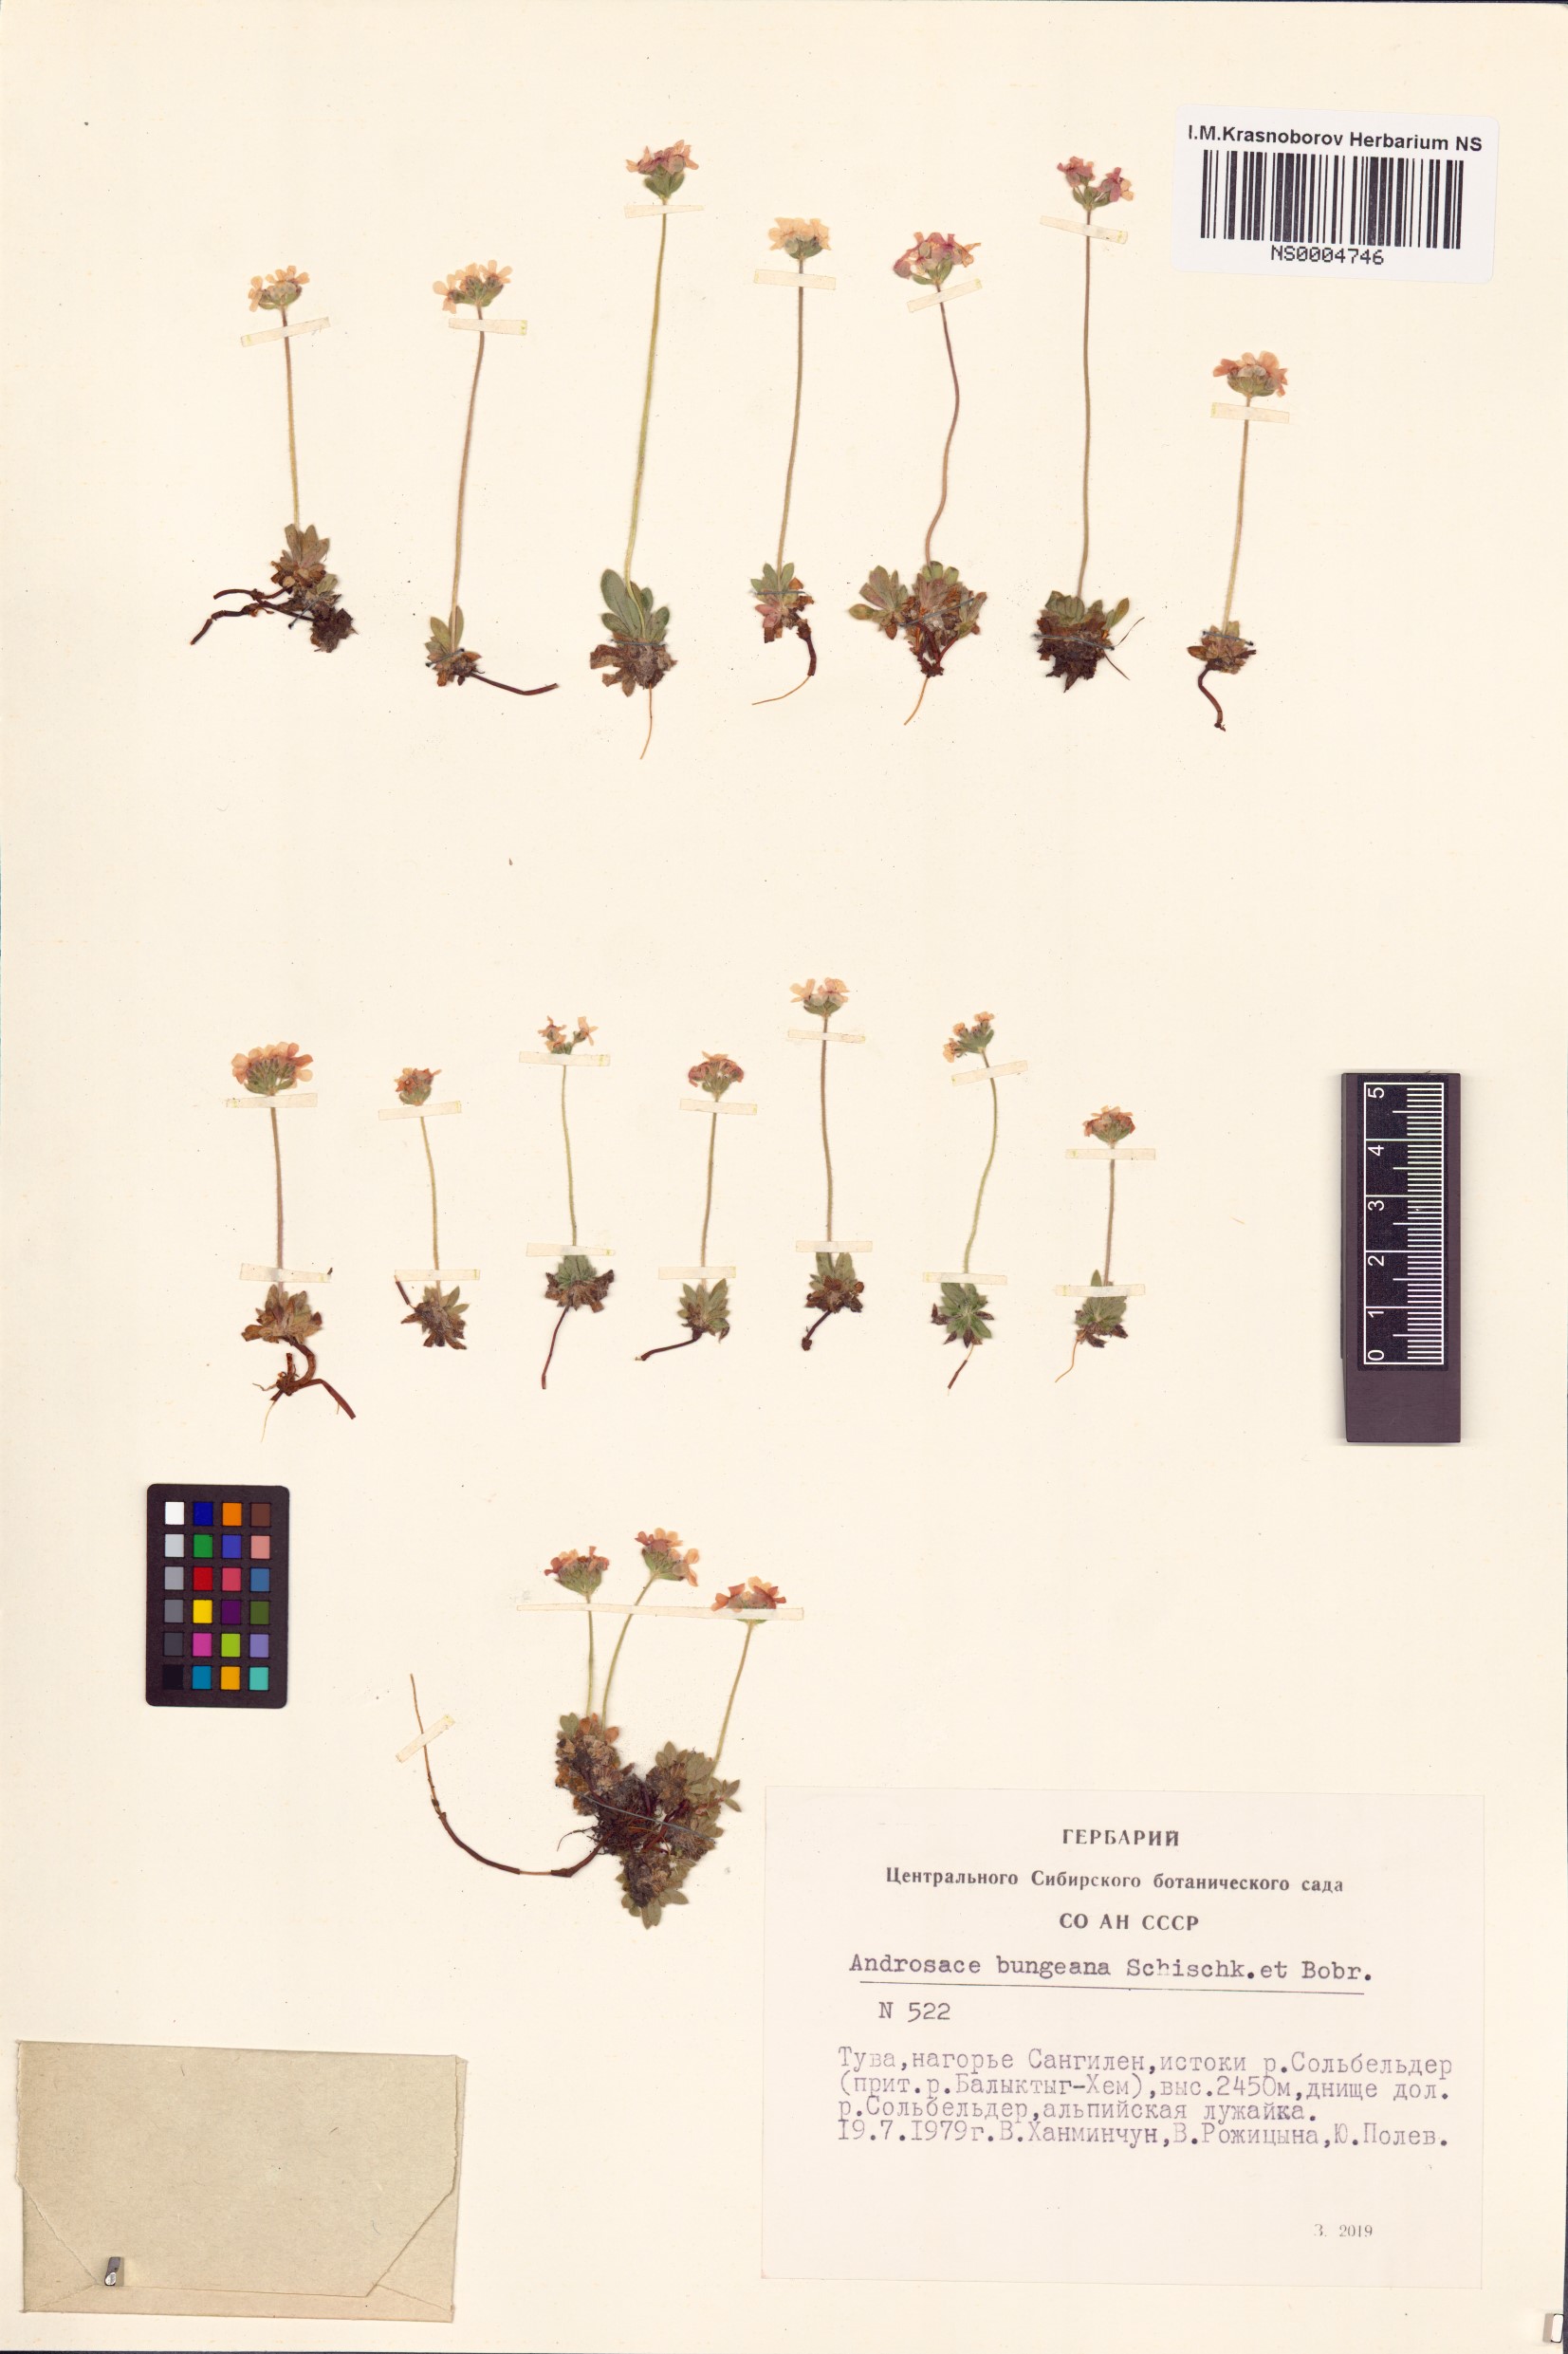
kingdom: Plantae
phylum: Tracheophyta
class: Magnoliopsida
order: Ericales
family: Primulaceae
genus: Lysimachia
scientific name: Lysimachia maritima
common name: Sea milkwort
